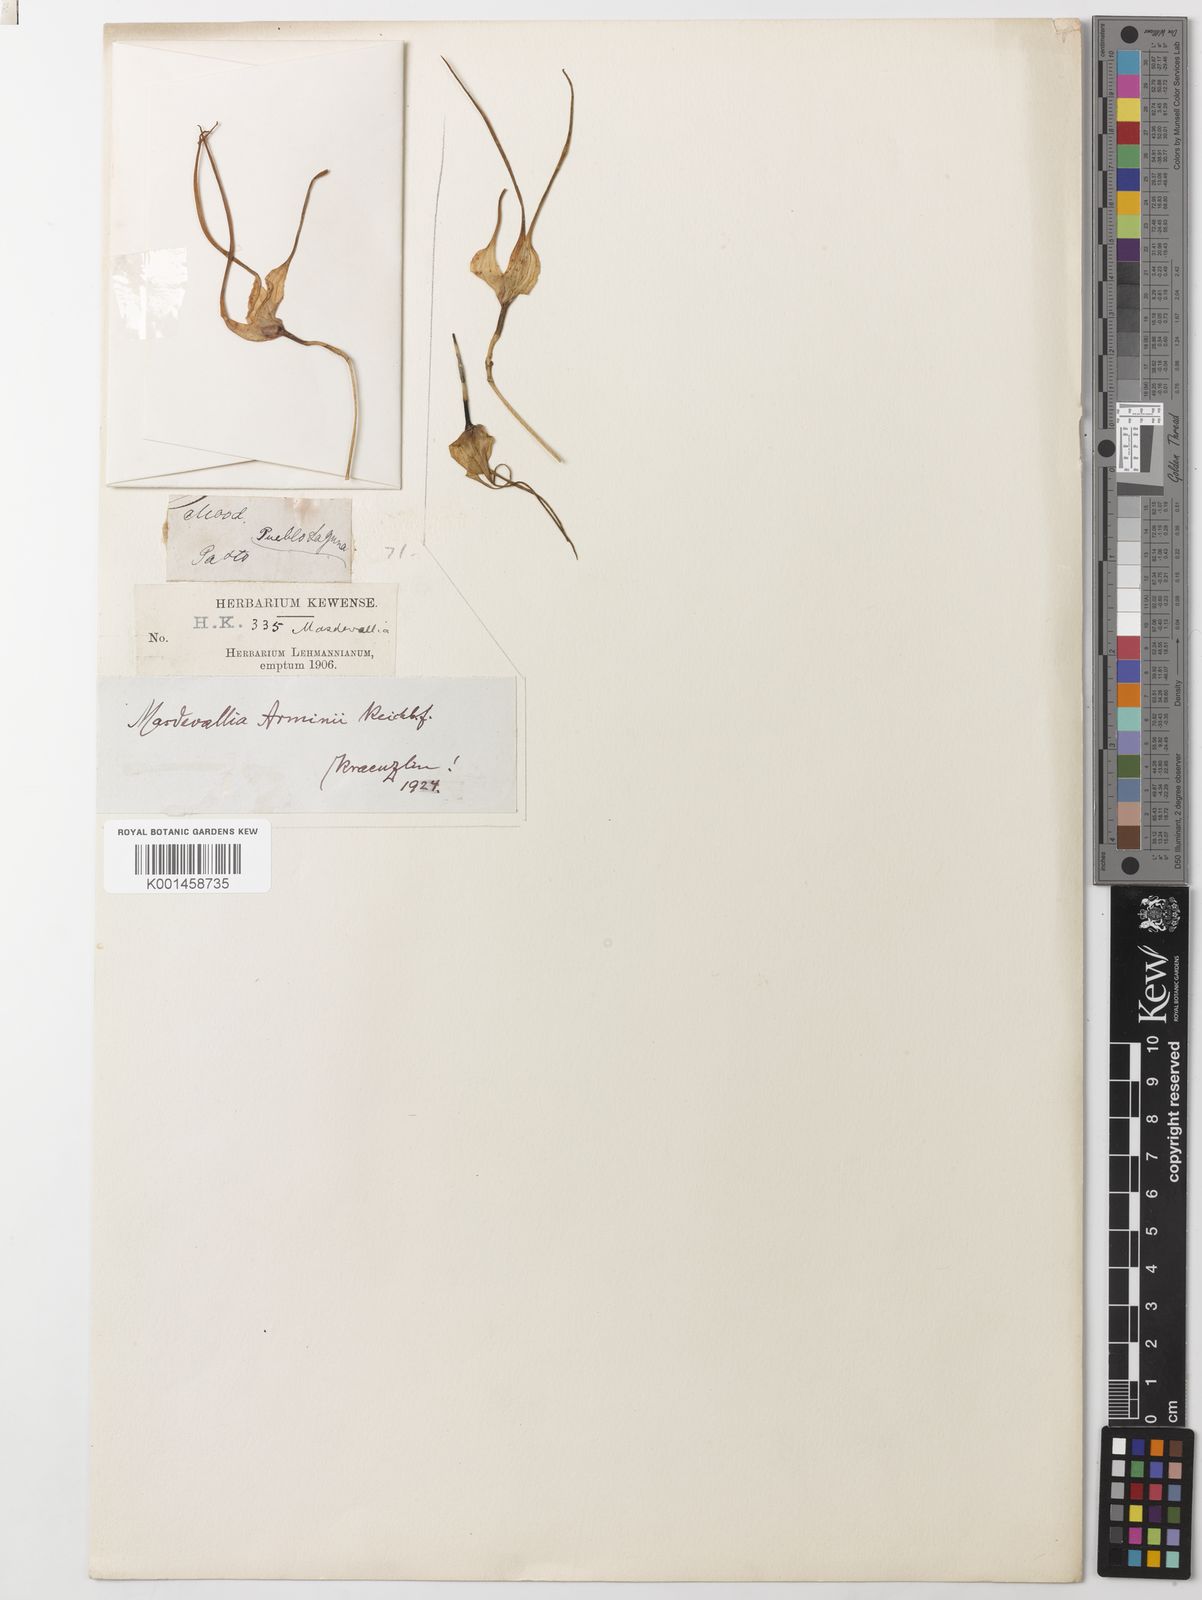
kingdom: Plantae
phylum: Tracheophyta
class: Liliopsida
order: Asparagales
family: Orchidaceae
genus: Masdevallia
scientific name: Masdevallia arminii
